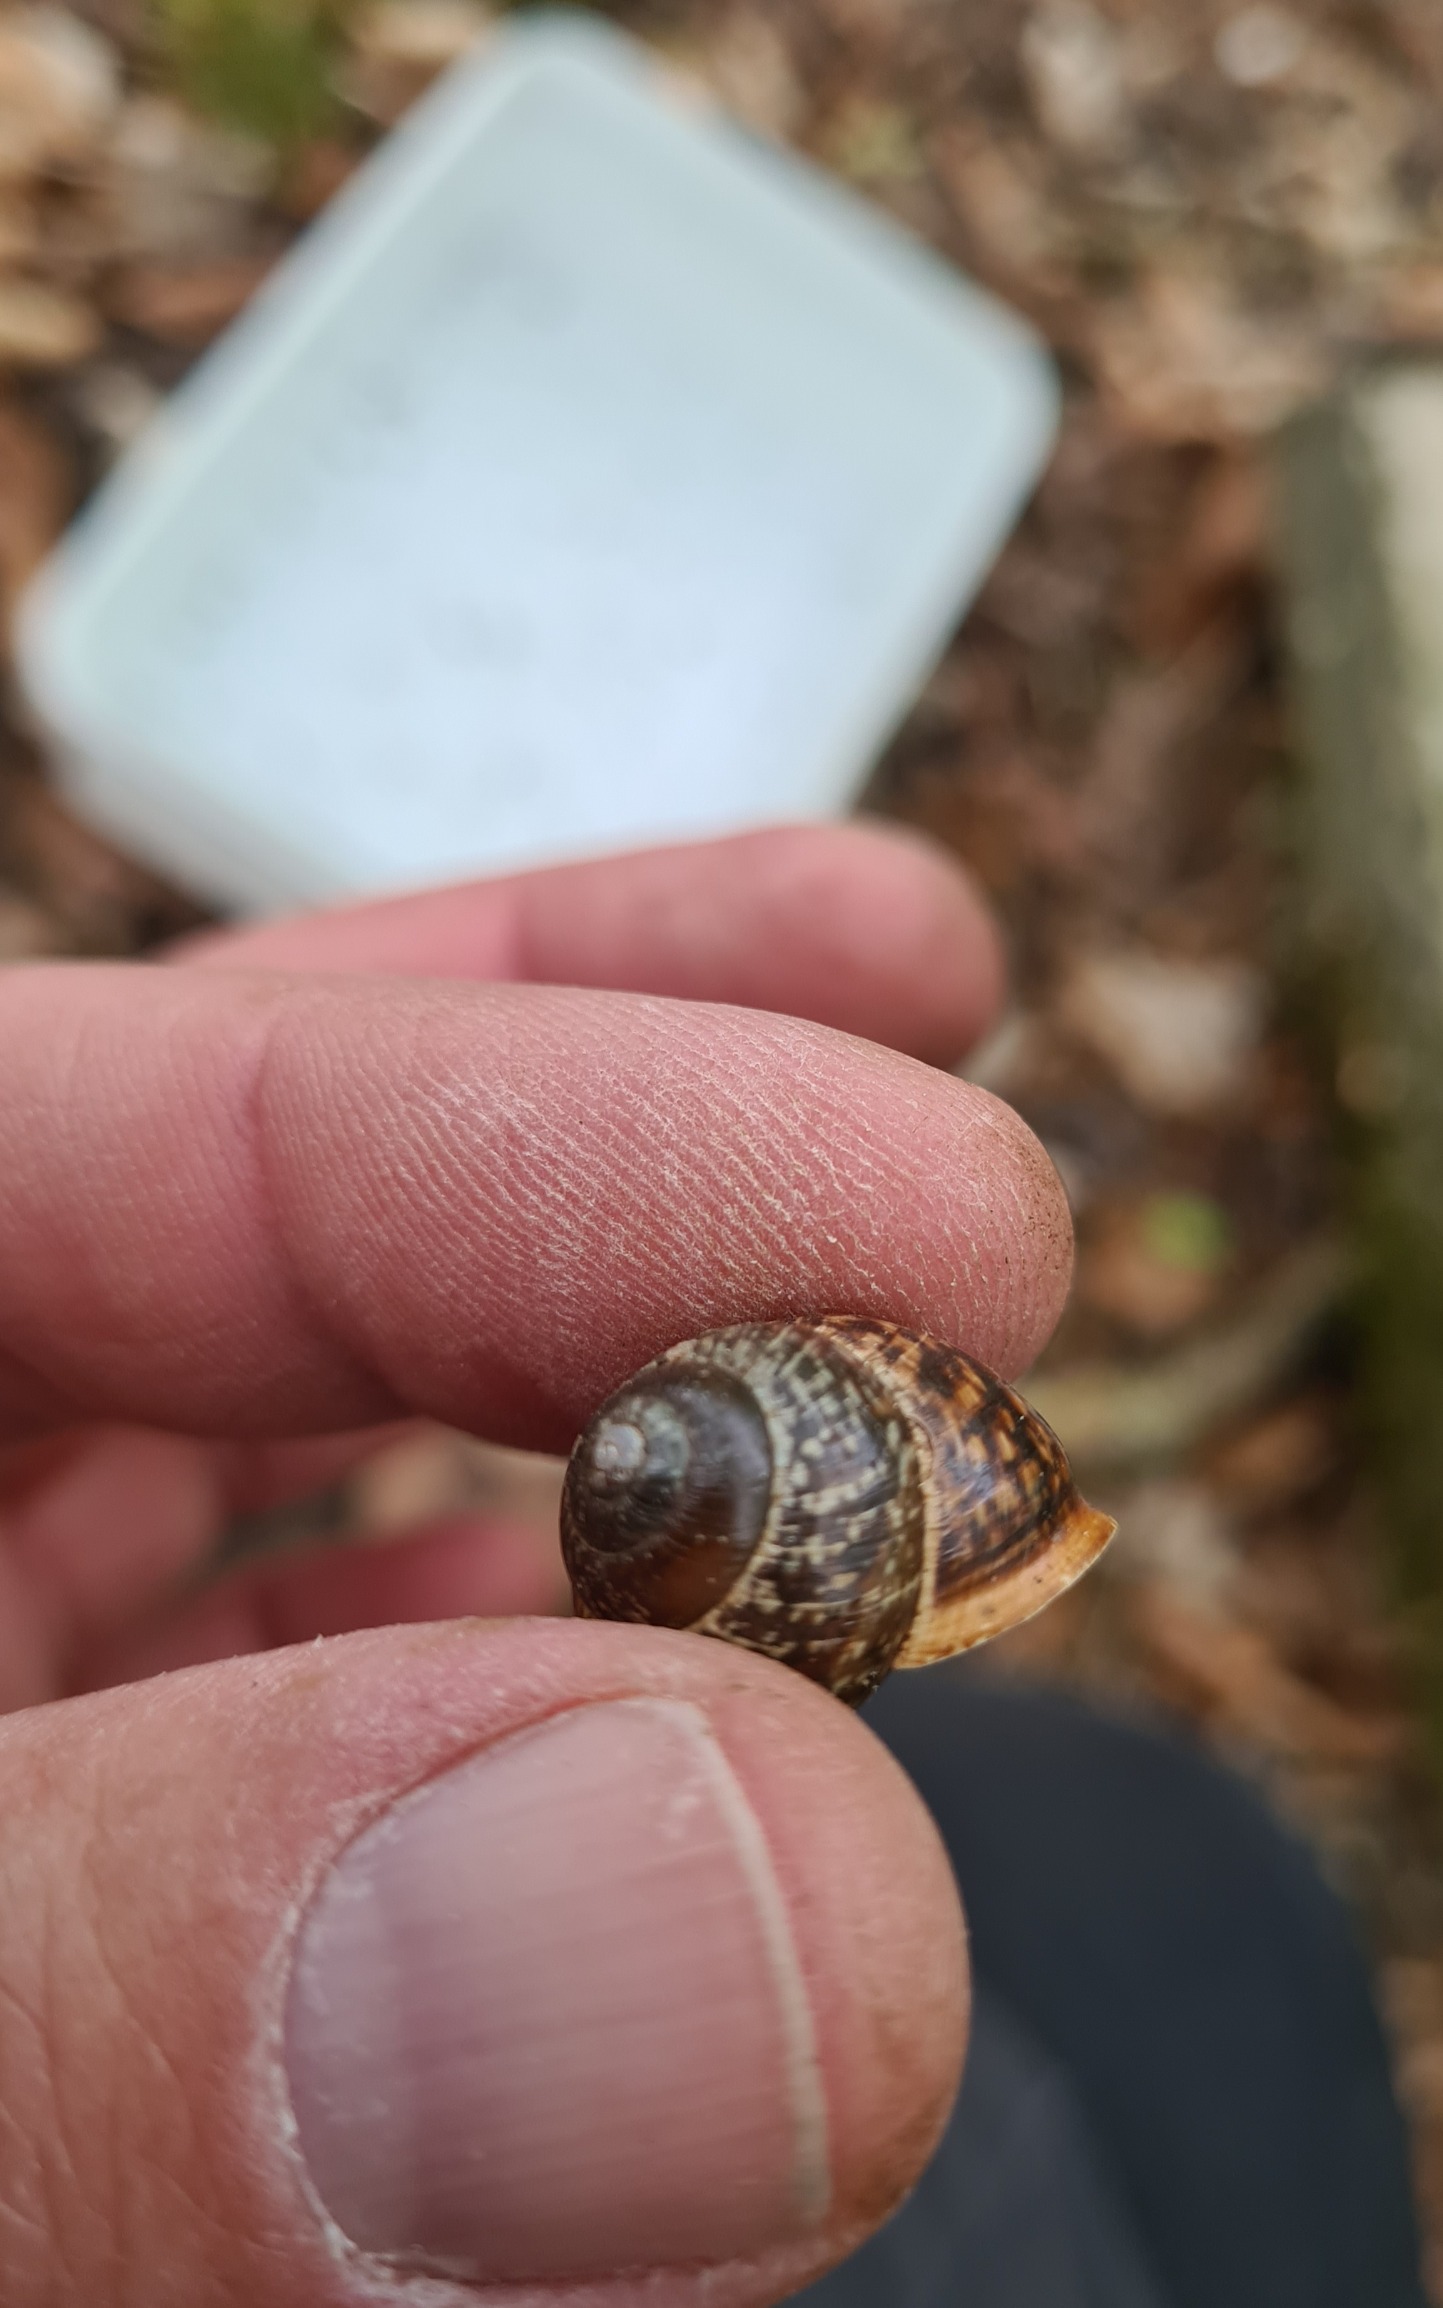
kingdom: Animalia
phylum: Mollusca
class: Gastropoda
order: Stylommatophora
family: Helicidae
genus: Arianta
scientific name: Arianta arbustorum
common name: Kratsnegl
